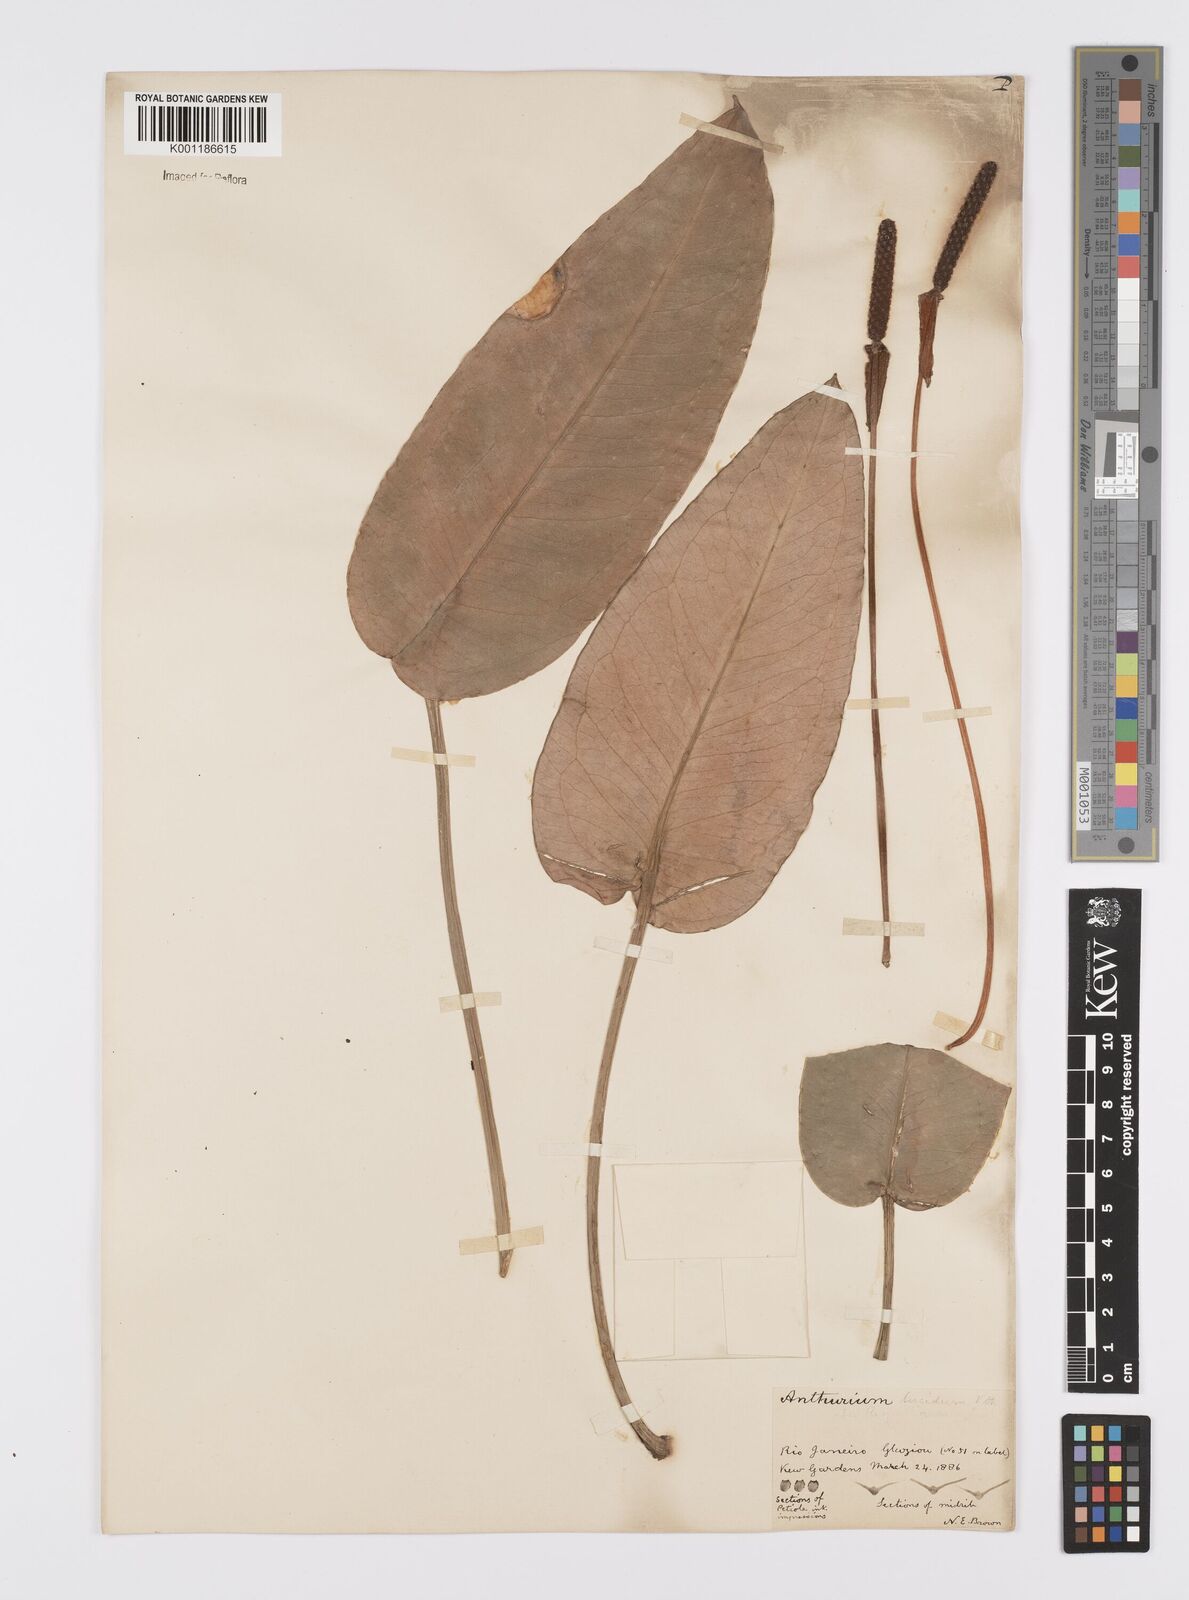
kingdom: Plantae
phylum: Tracheophyta
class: Liliopsida
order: Alismatales
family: Araceae
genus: Anthurium
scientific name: Anthurium lucidum
